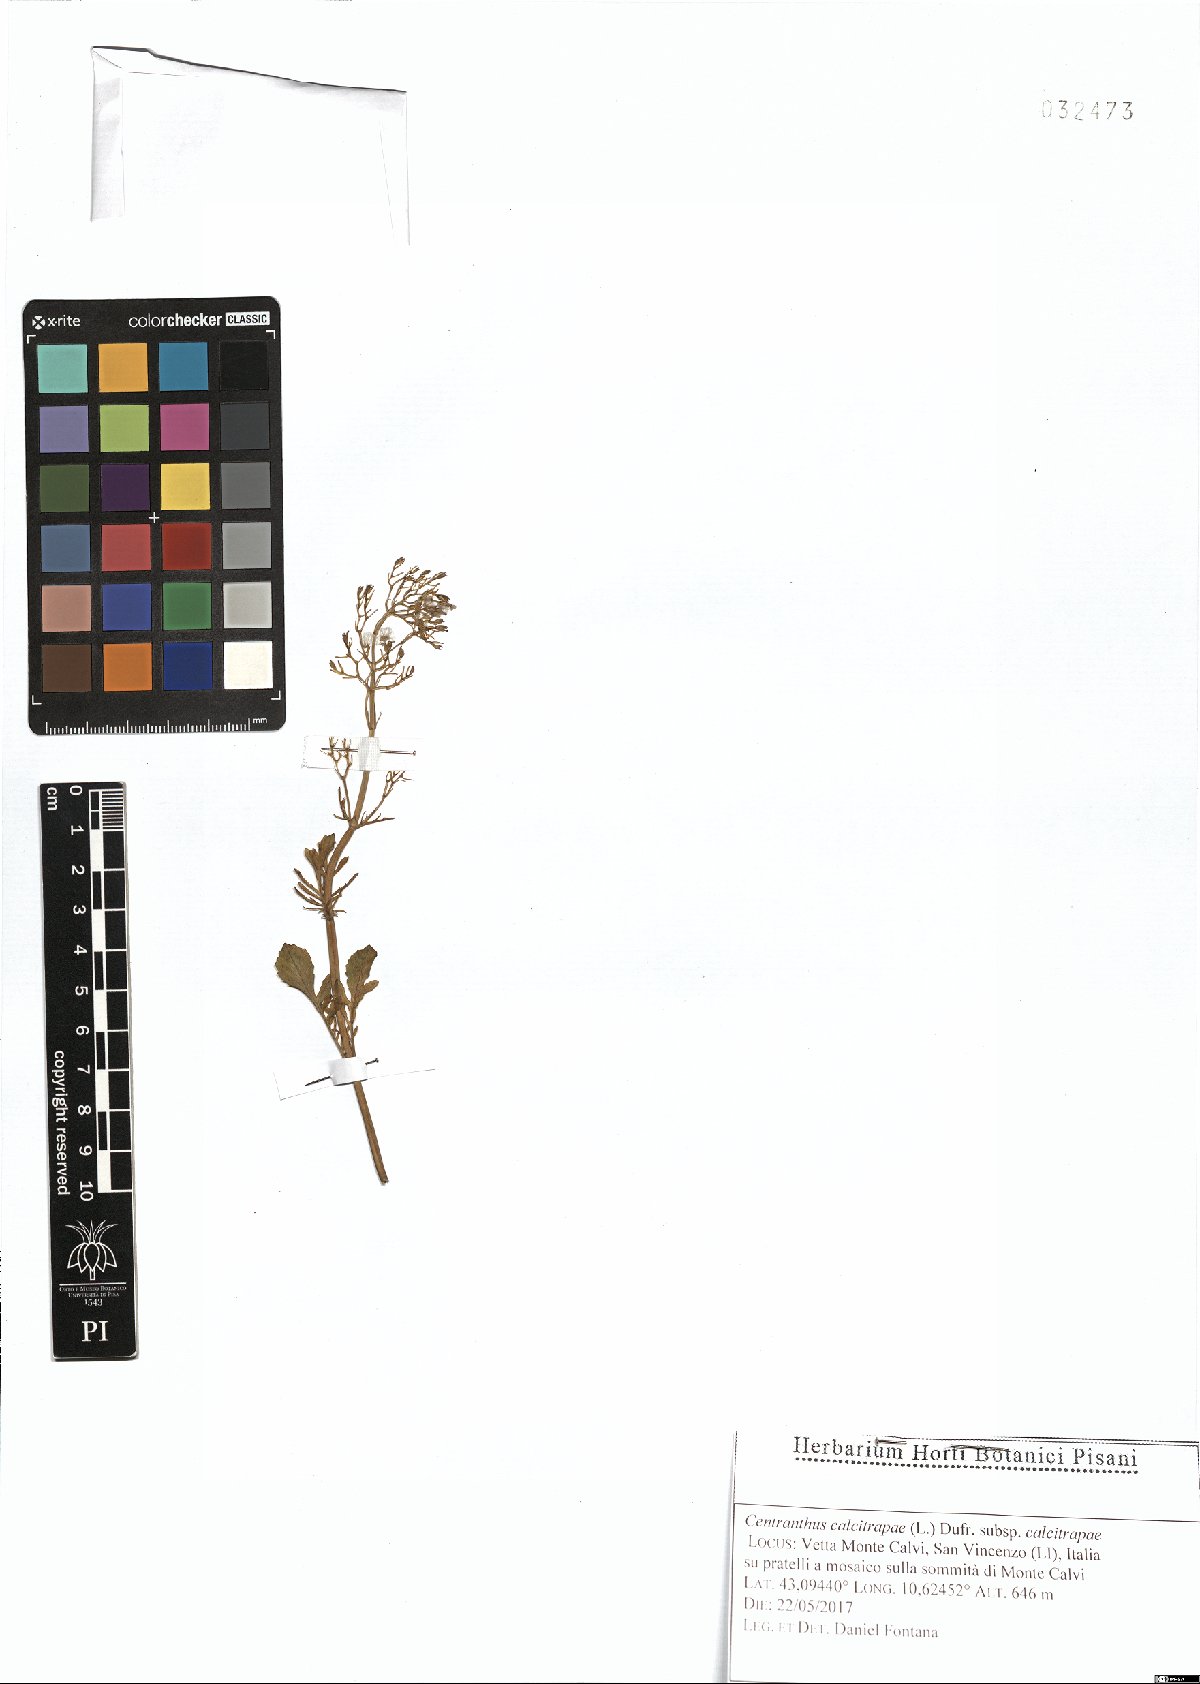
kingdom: Plantae
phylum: Tracheophyta
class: Magnoliopsida
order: Dipsacales
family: Caprifoliaceae
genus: Centranthus
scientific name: Centranthus calcitrapae
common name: Annual valerian
